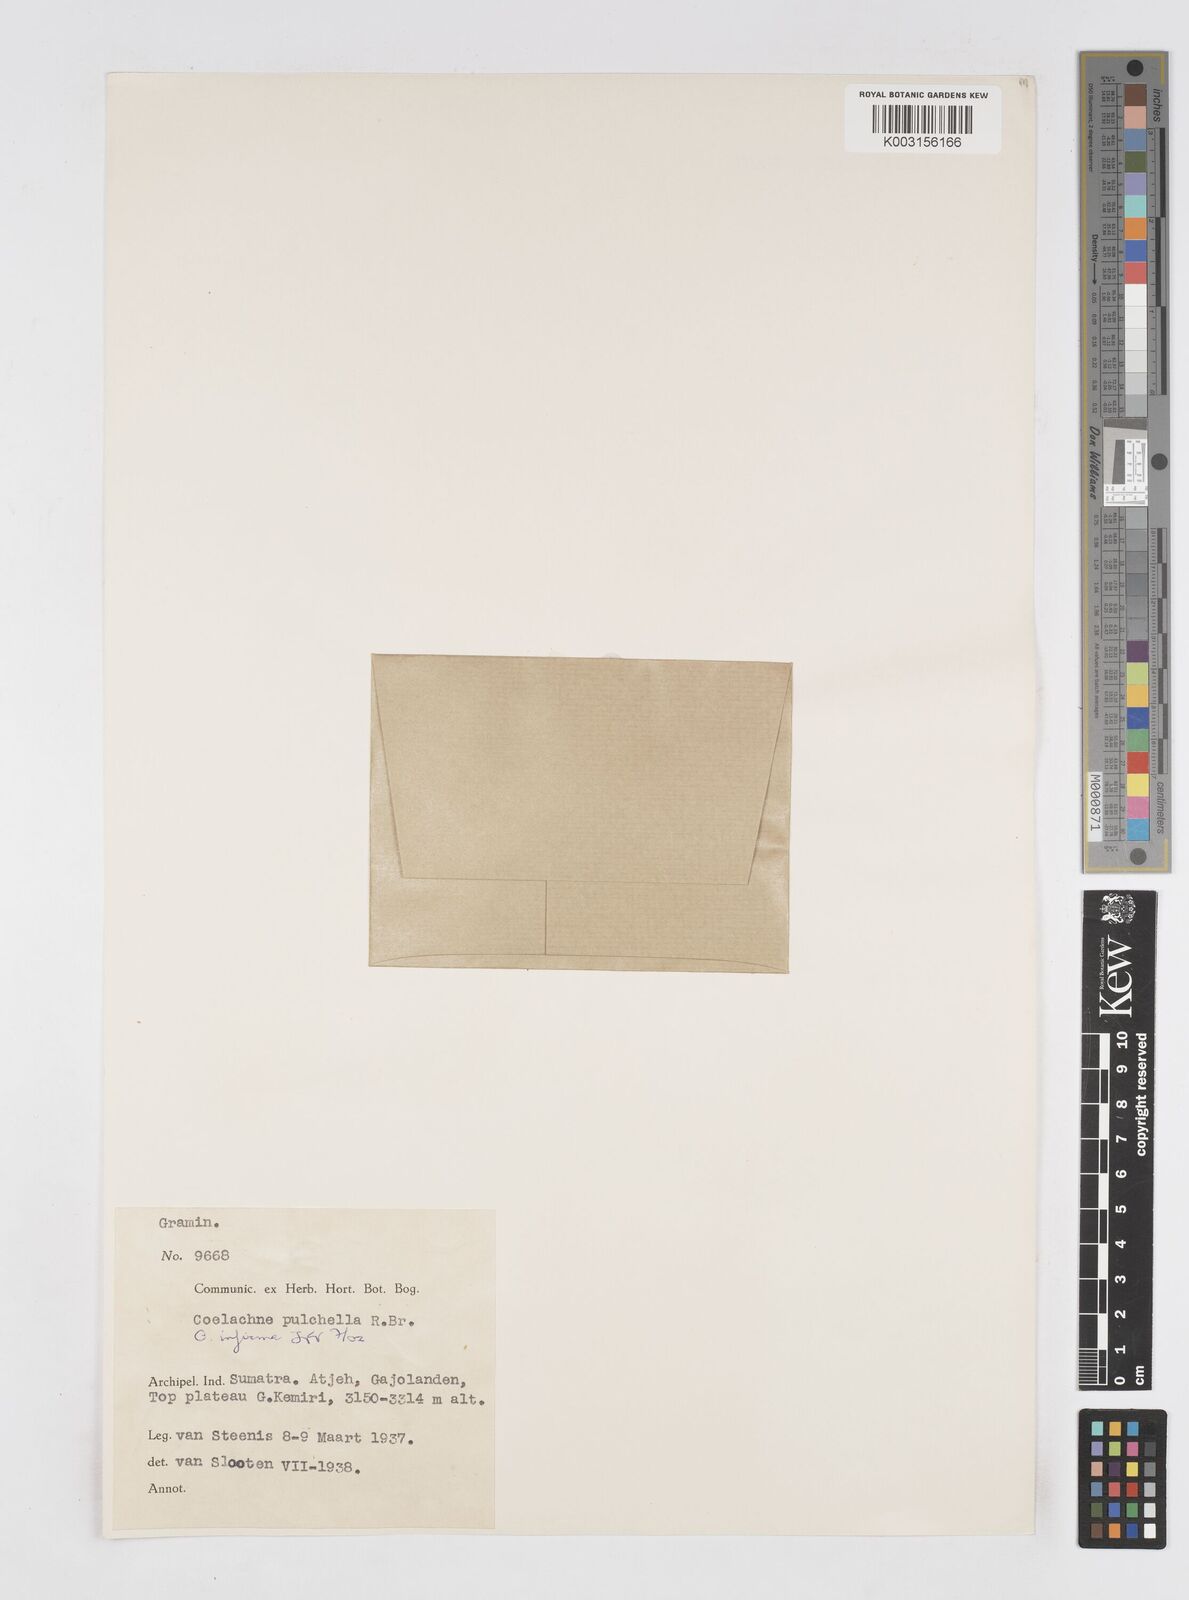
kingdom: Plantae
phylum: Tracheophyta
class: Liliopsida
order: Poales
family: Poaceae
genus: Coelachne
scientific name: Coelachne infirma
